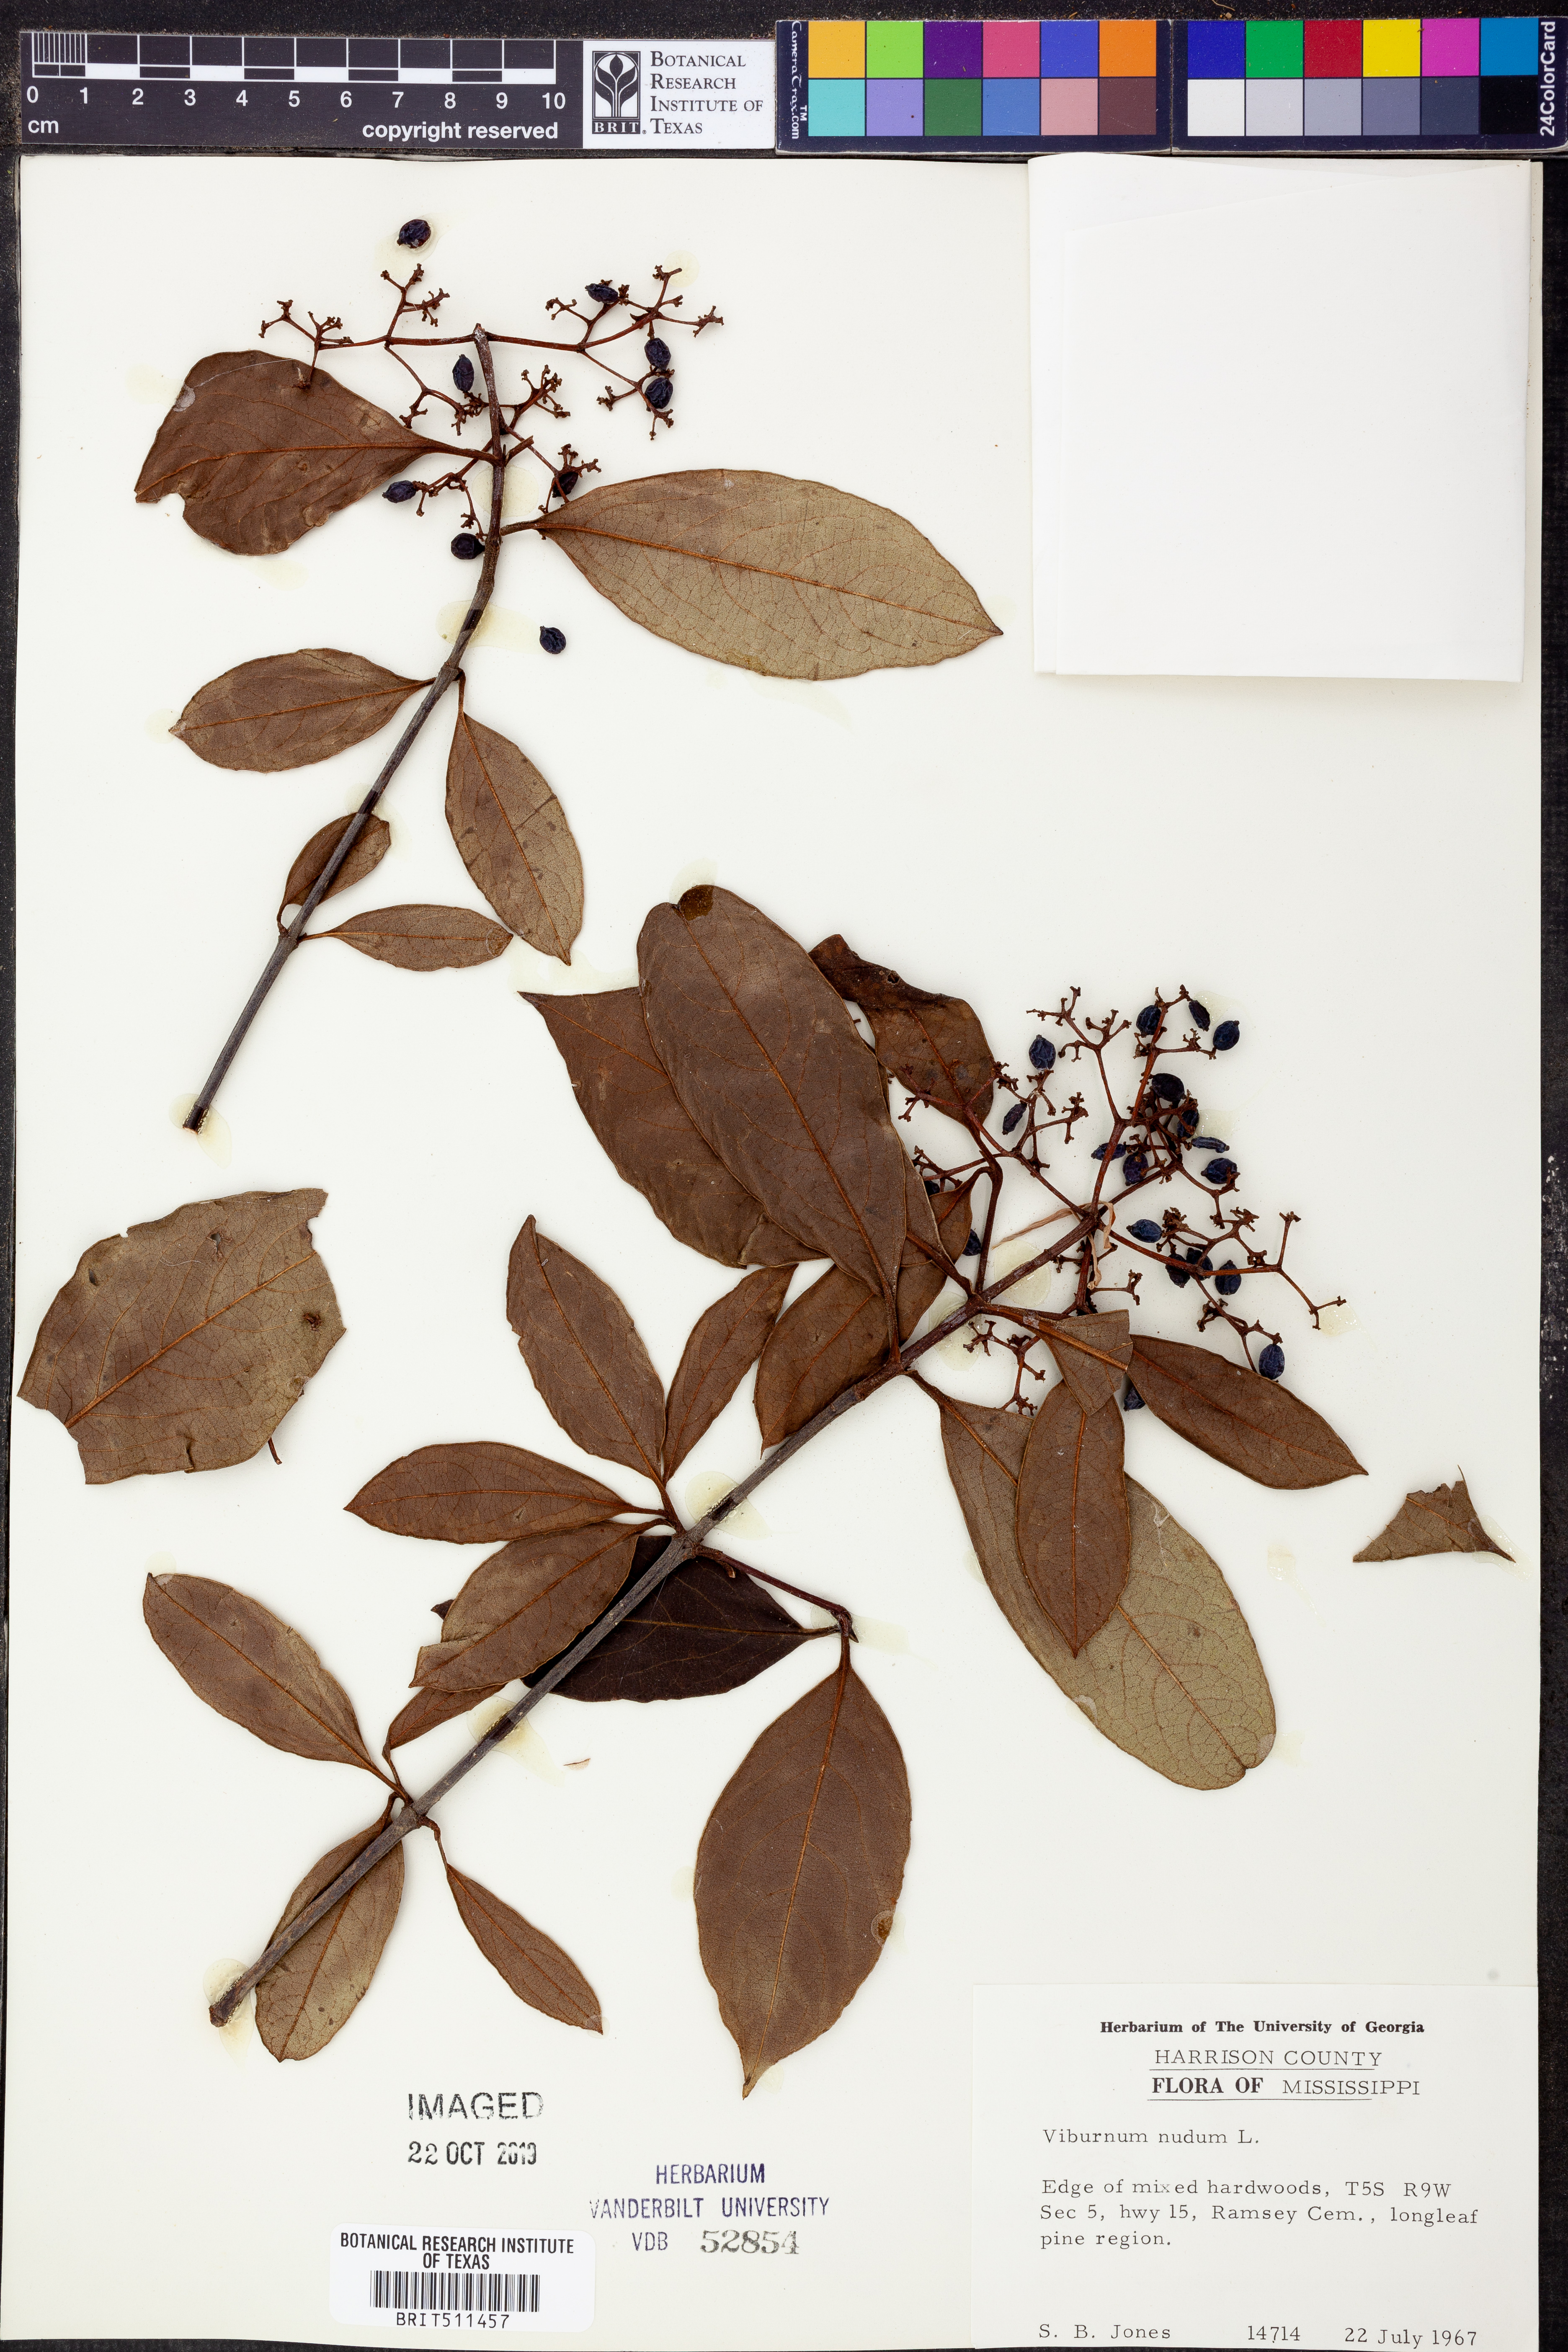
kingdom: Plantae
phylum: Tracheophyta
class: Magnoliopsida
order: Dipsacales
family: Viburnaceae
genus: Viburnum
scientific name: Viburnum nudum
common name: Possum haw
